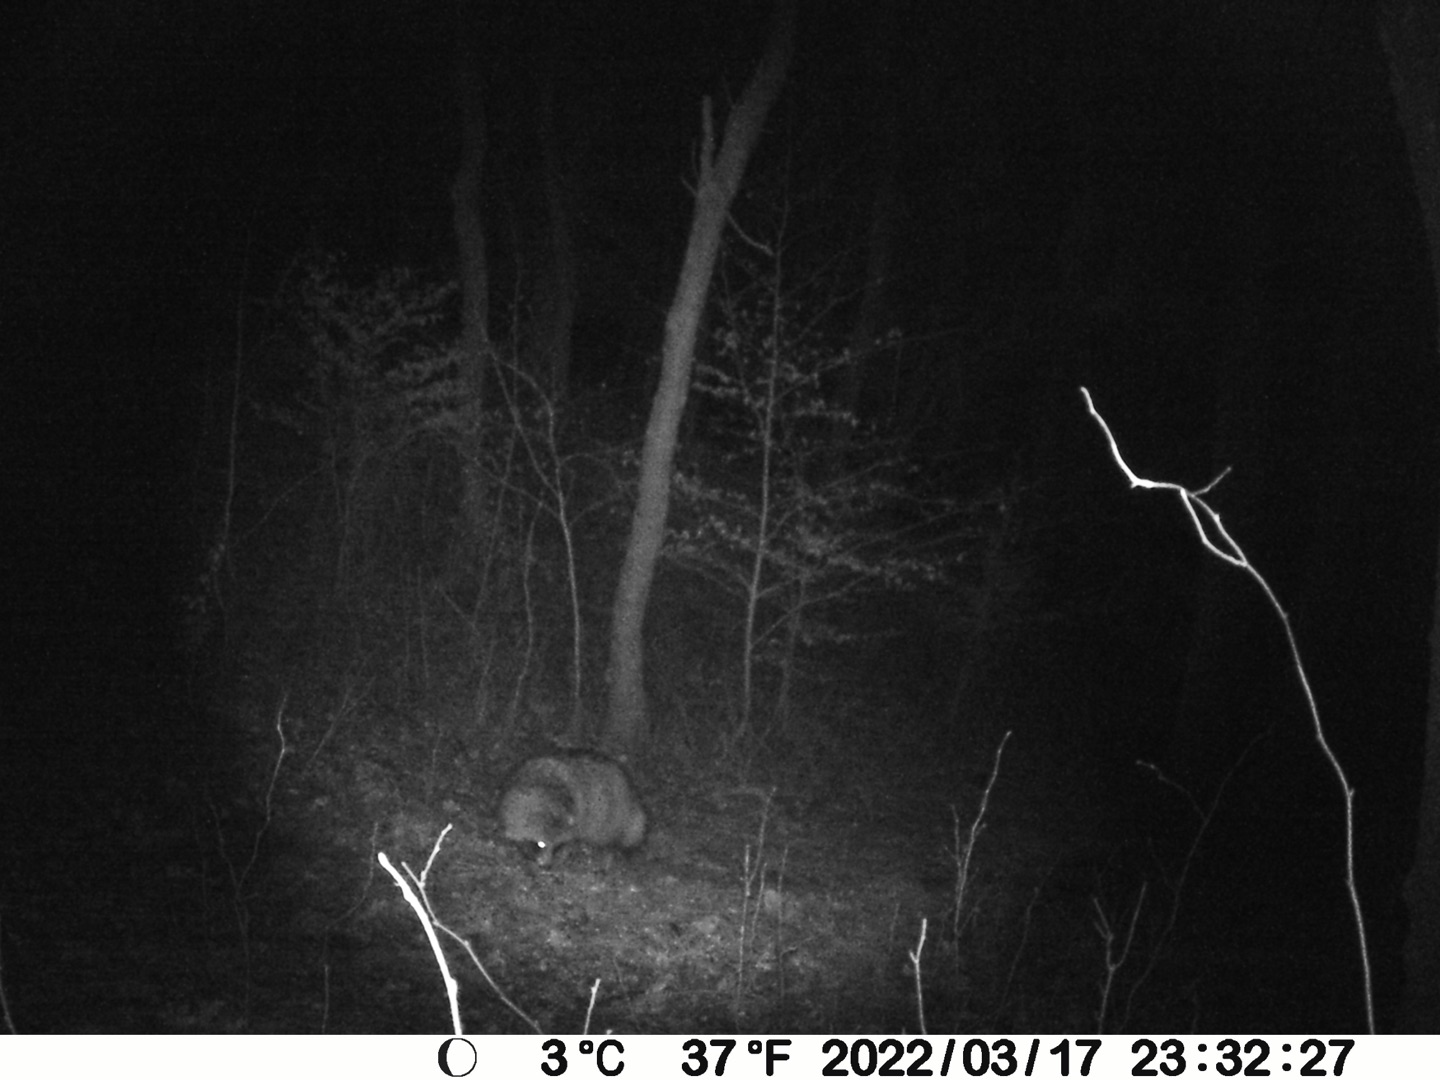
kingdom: Animalia
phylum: Chordata
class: Mammalia
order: Carnivora
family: Canidae
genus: Nyctereutes
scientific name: Nyctereutes procyonoides
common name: Mårhund
